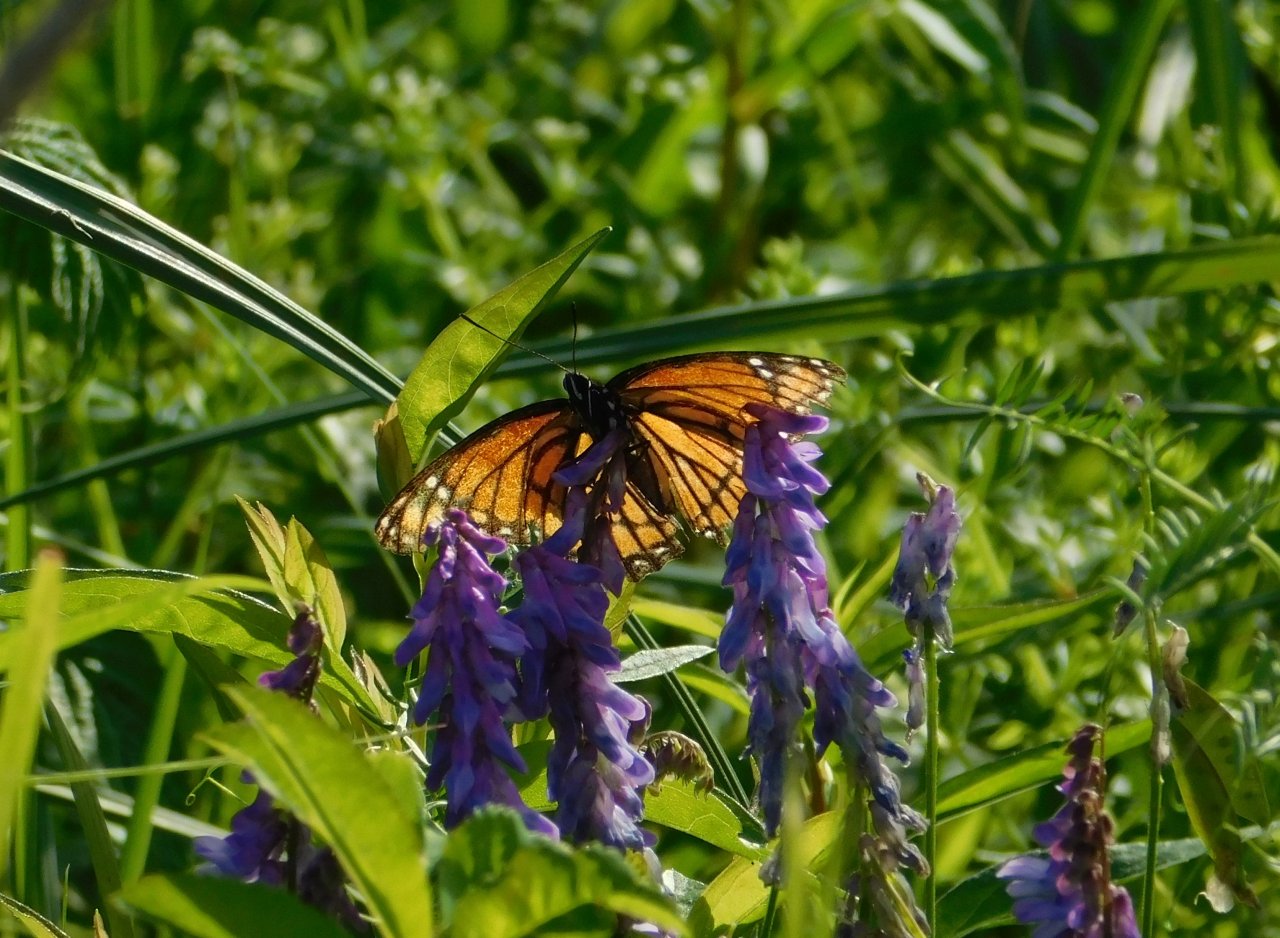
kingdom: Animalia
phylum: Arthropoda
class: Insecta
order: Lepidoptera
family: Nymphalidae
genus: Limenitis
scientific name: Limenitis archippus
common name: Viceroy
